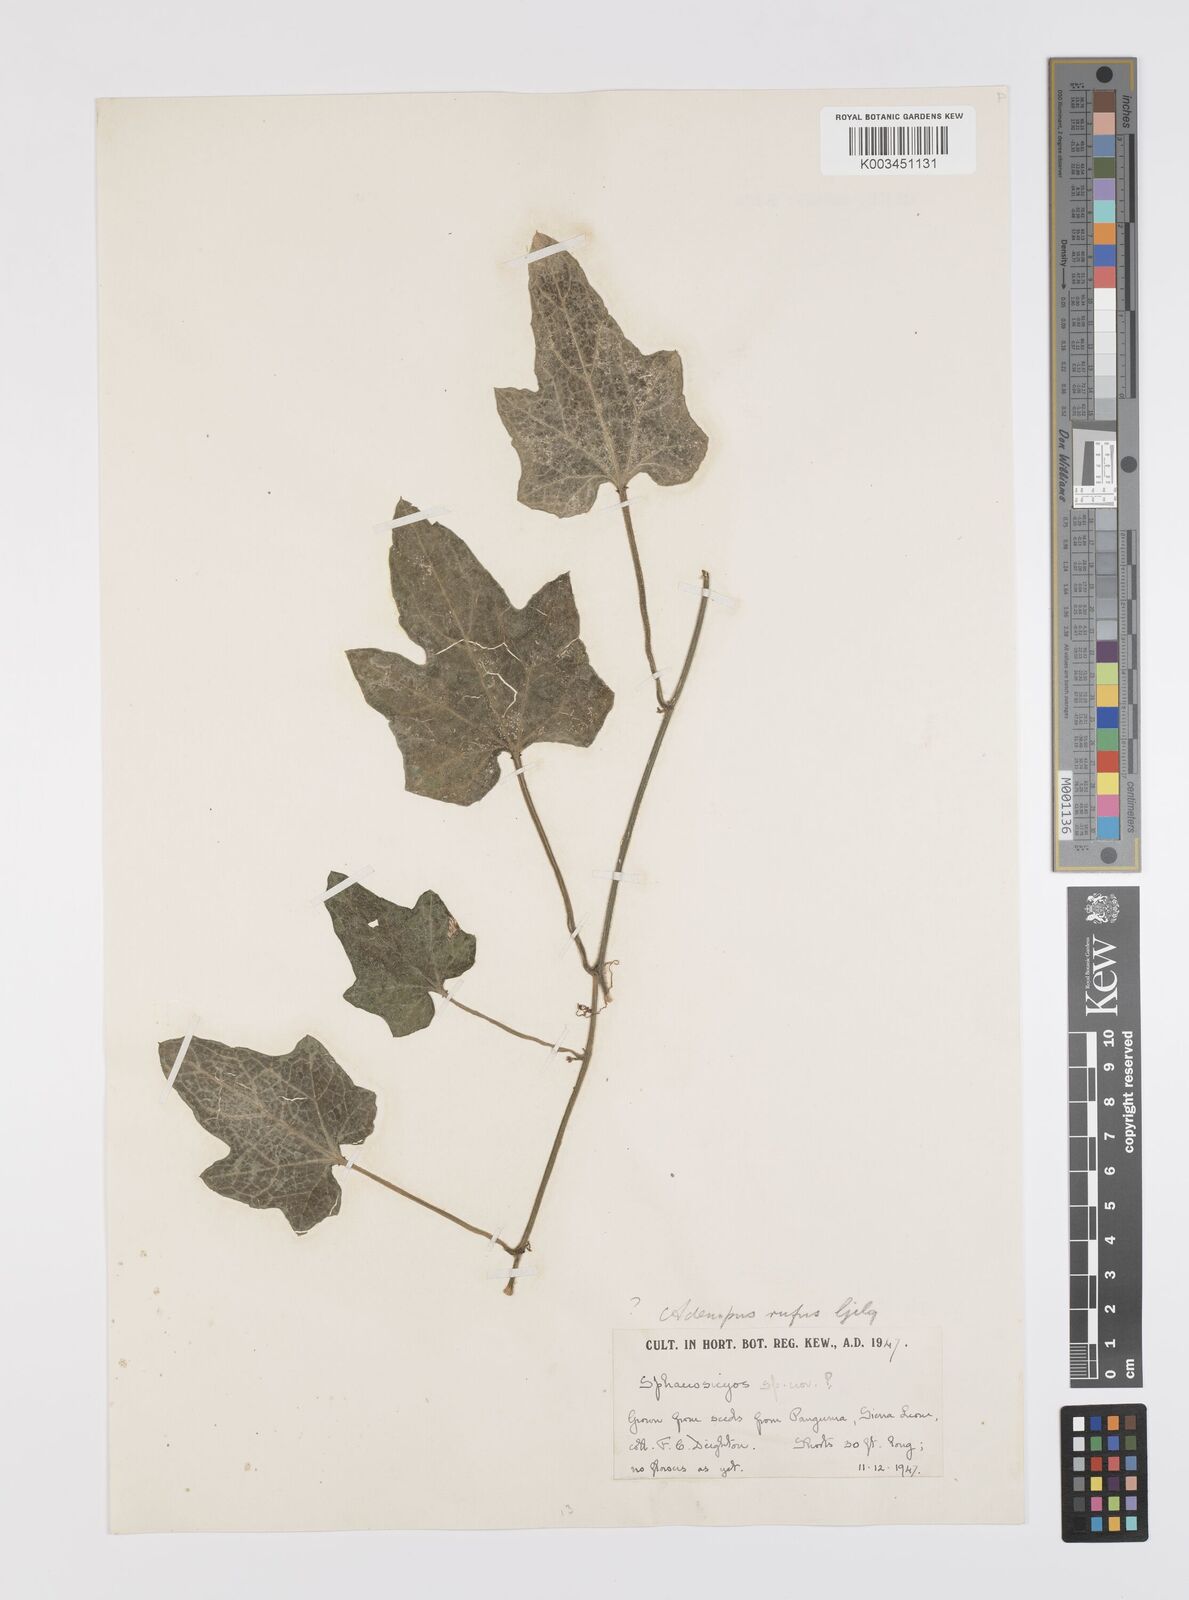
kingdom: Plantae
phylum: Tracheophyta
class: Magnoliopsida
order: Cucurbitales
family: Cucurbitaceae
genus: Lagenaria
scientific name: Lagenaria
